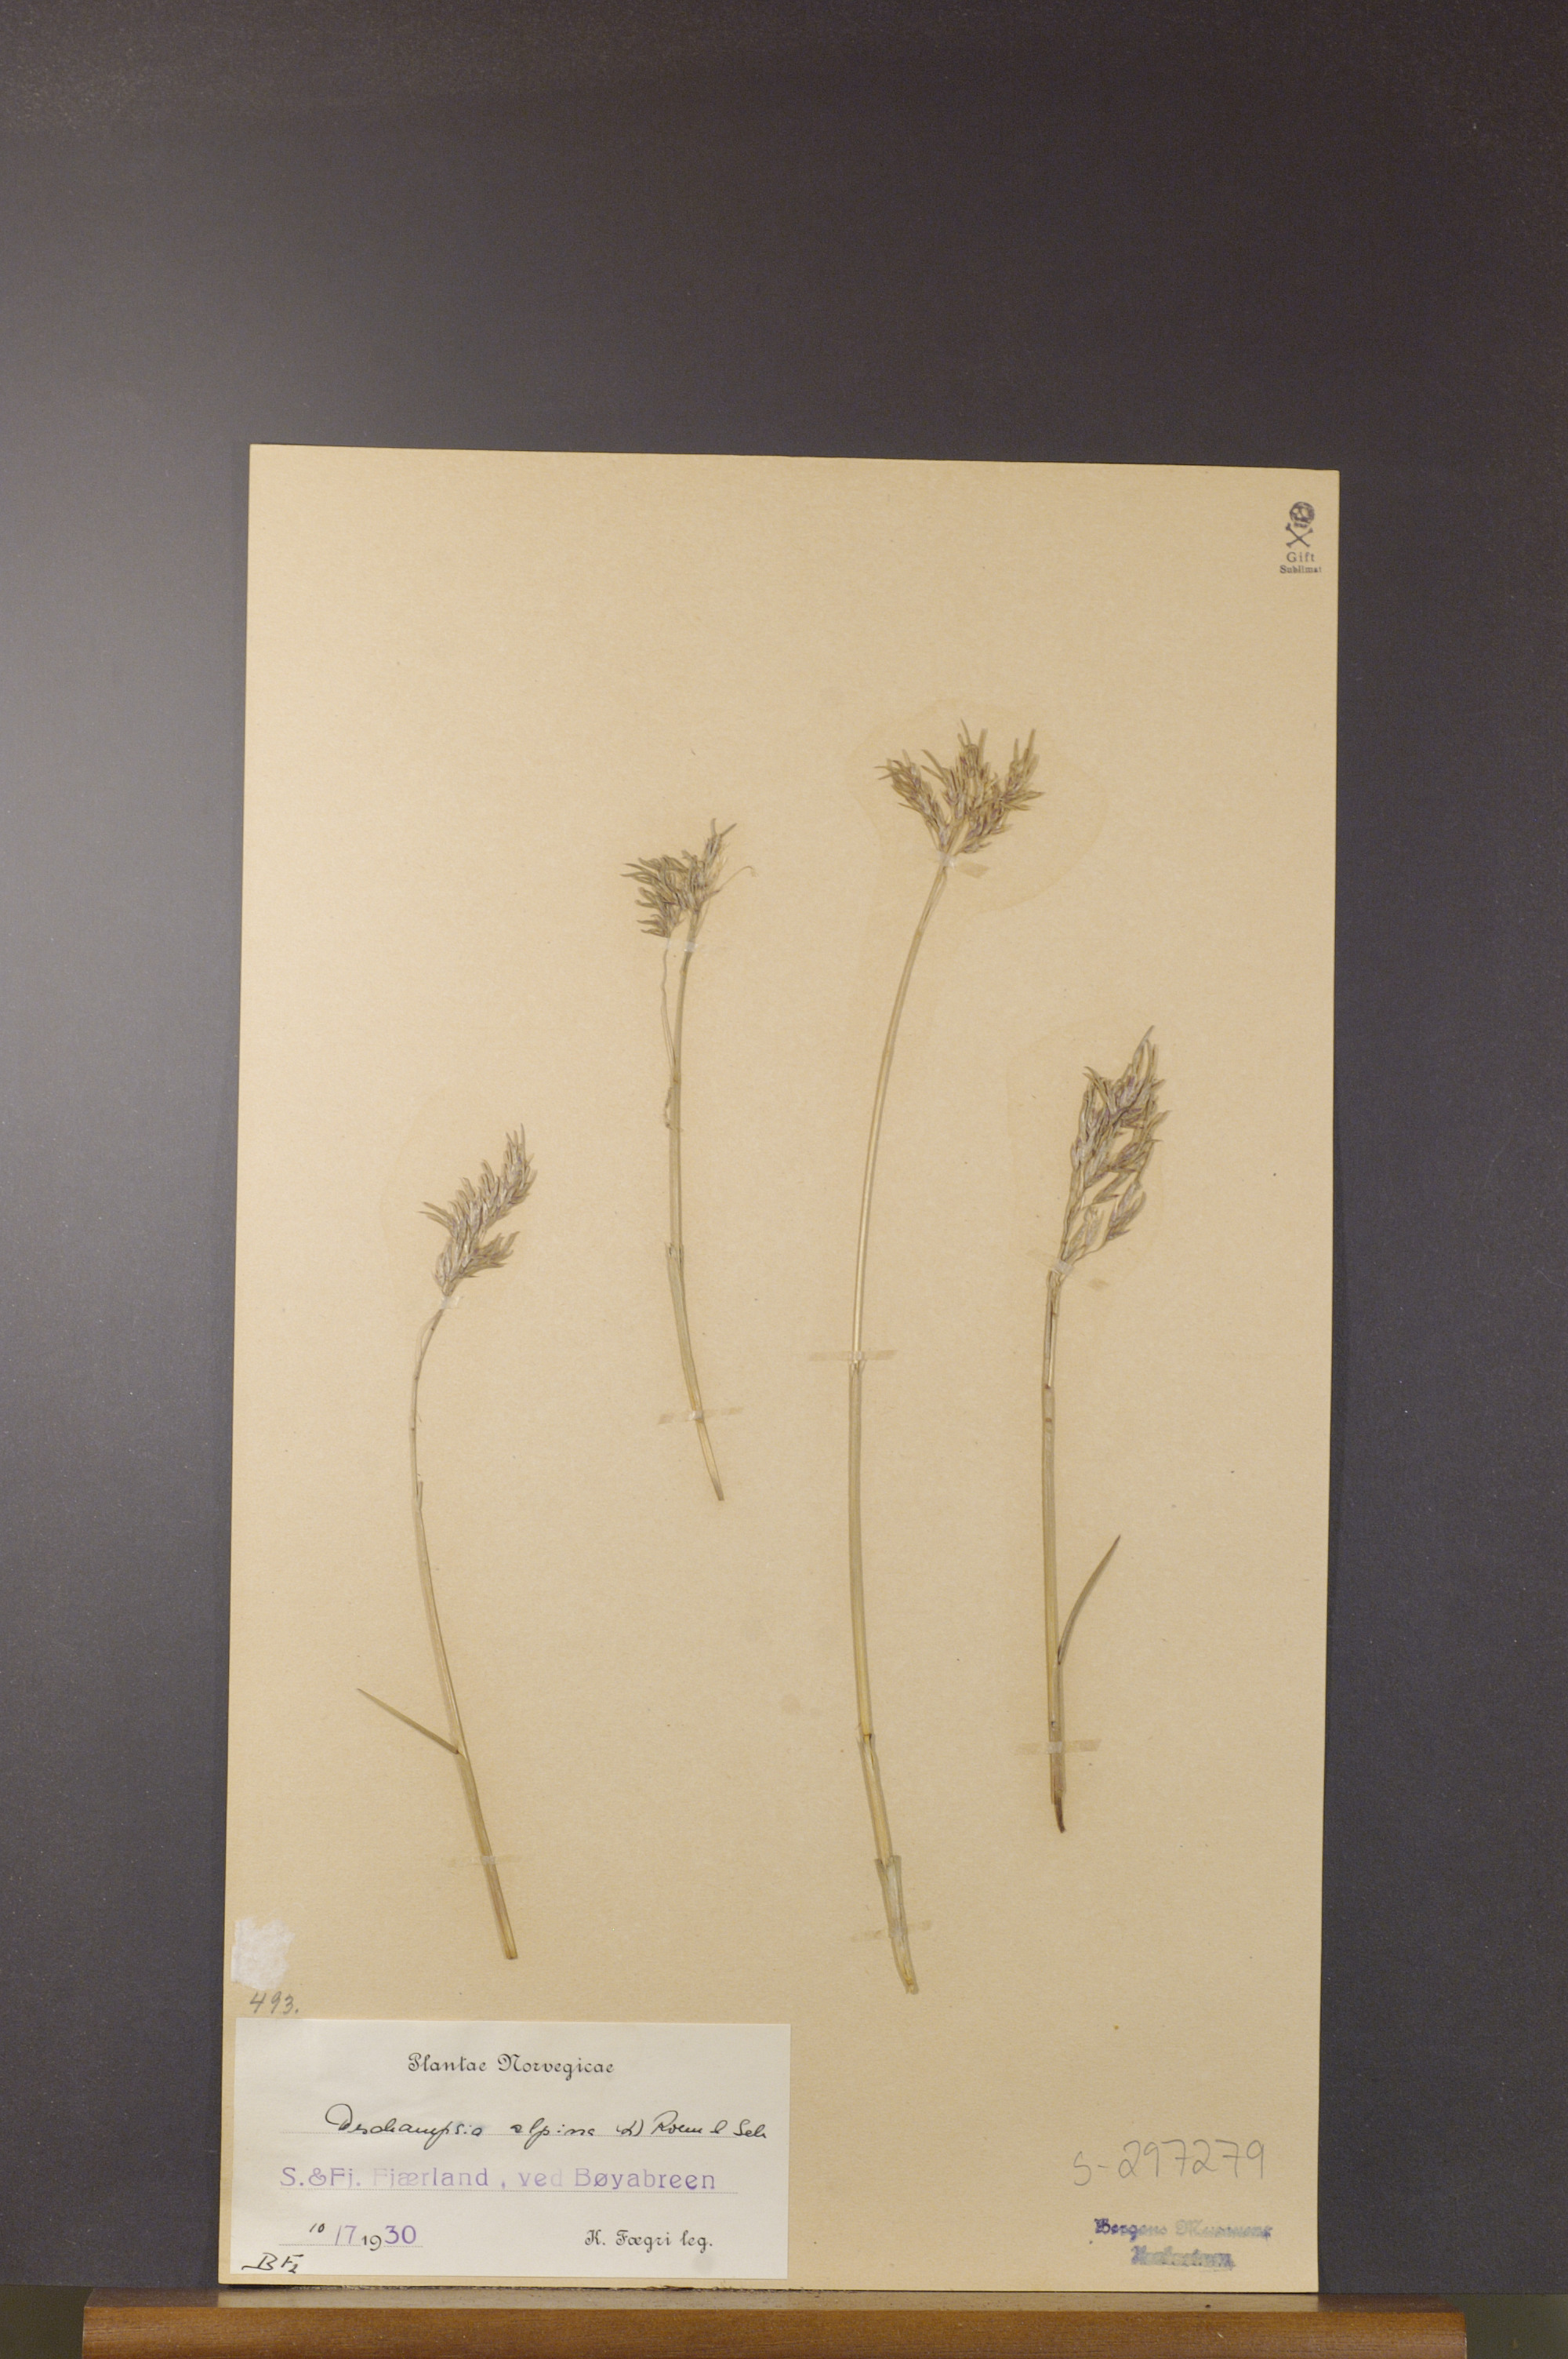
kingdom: Plantae
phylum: Tracheophyta
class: Liliopsida
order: Poales
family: Poaceae
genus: Deschampsia
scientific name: Deschampsia cespitosa
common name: Tufted hair-grass
